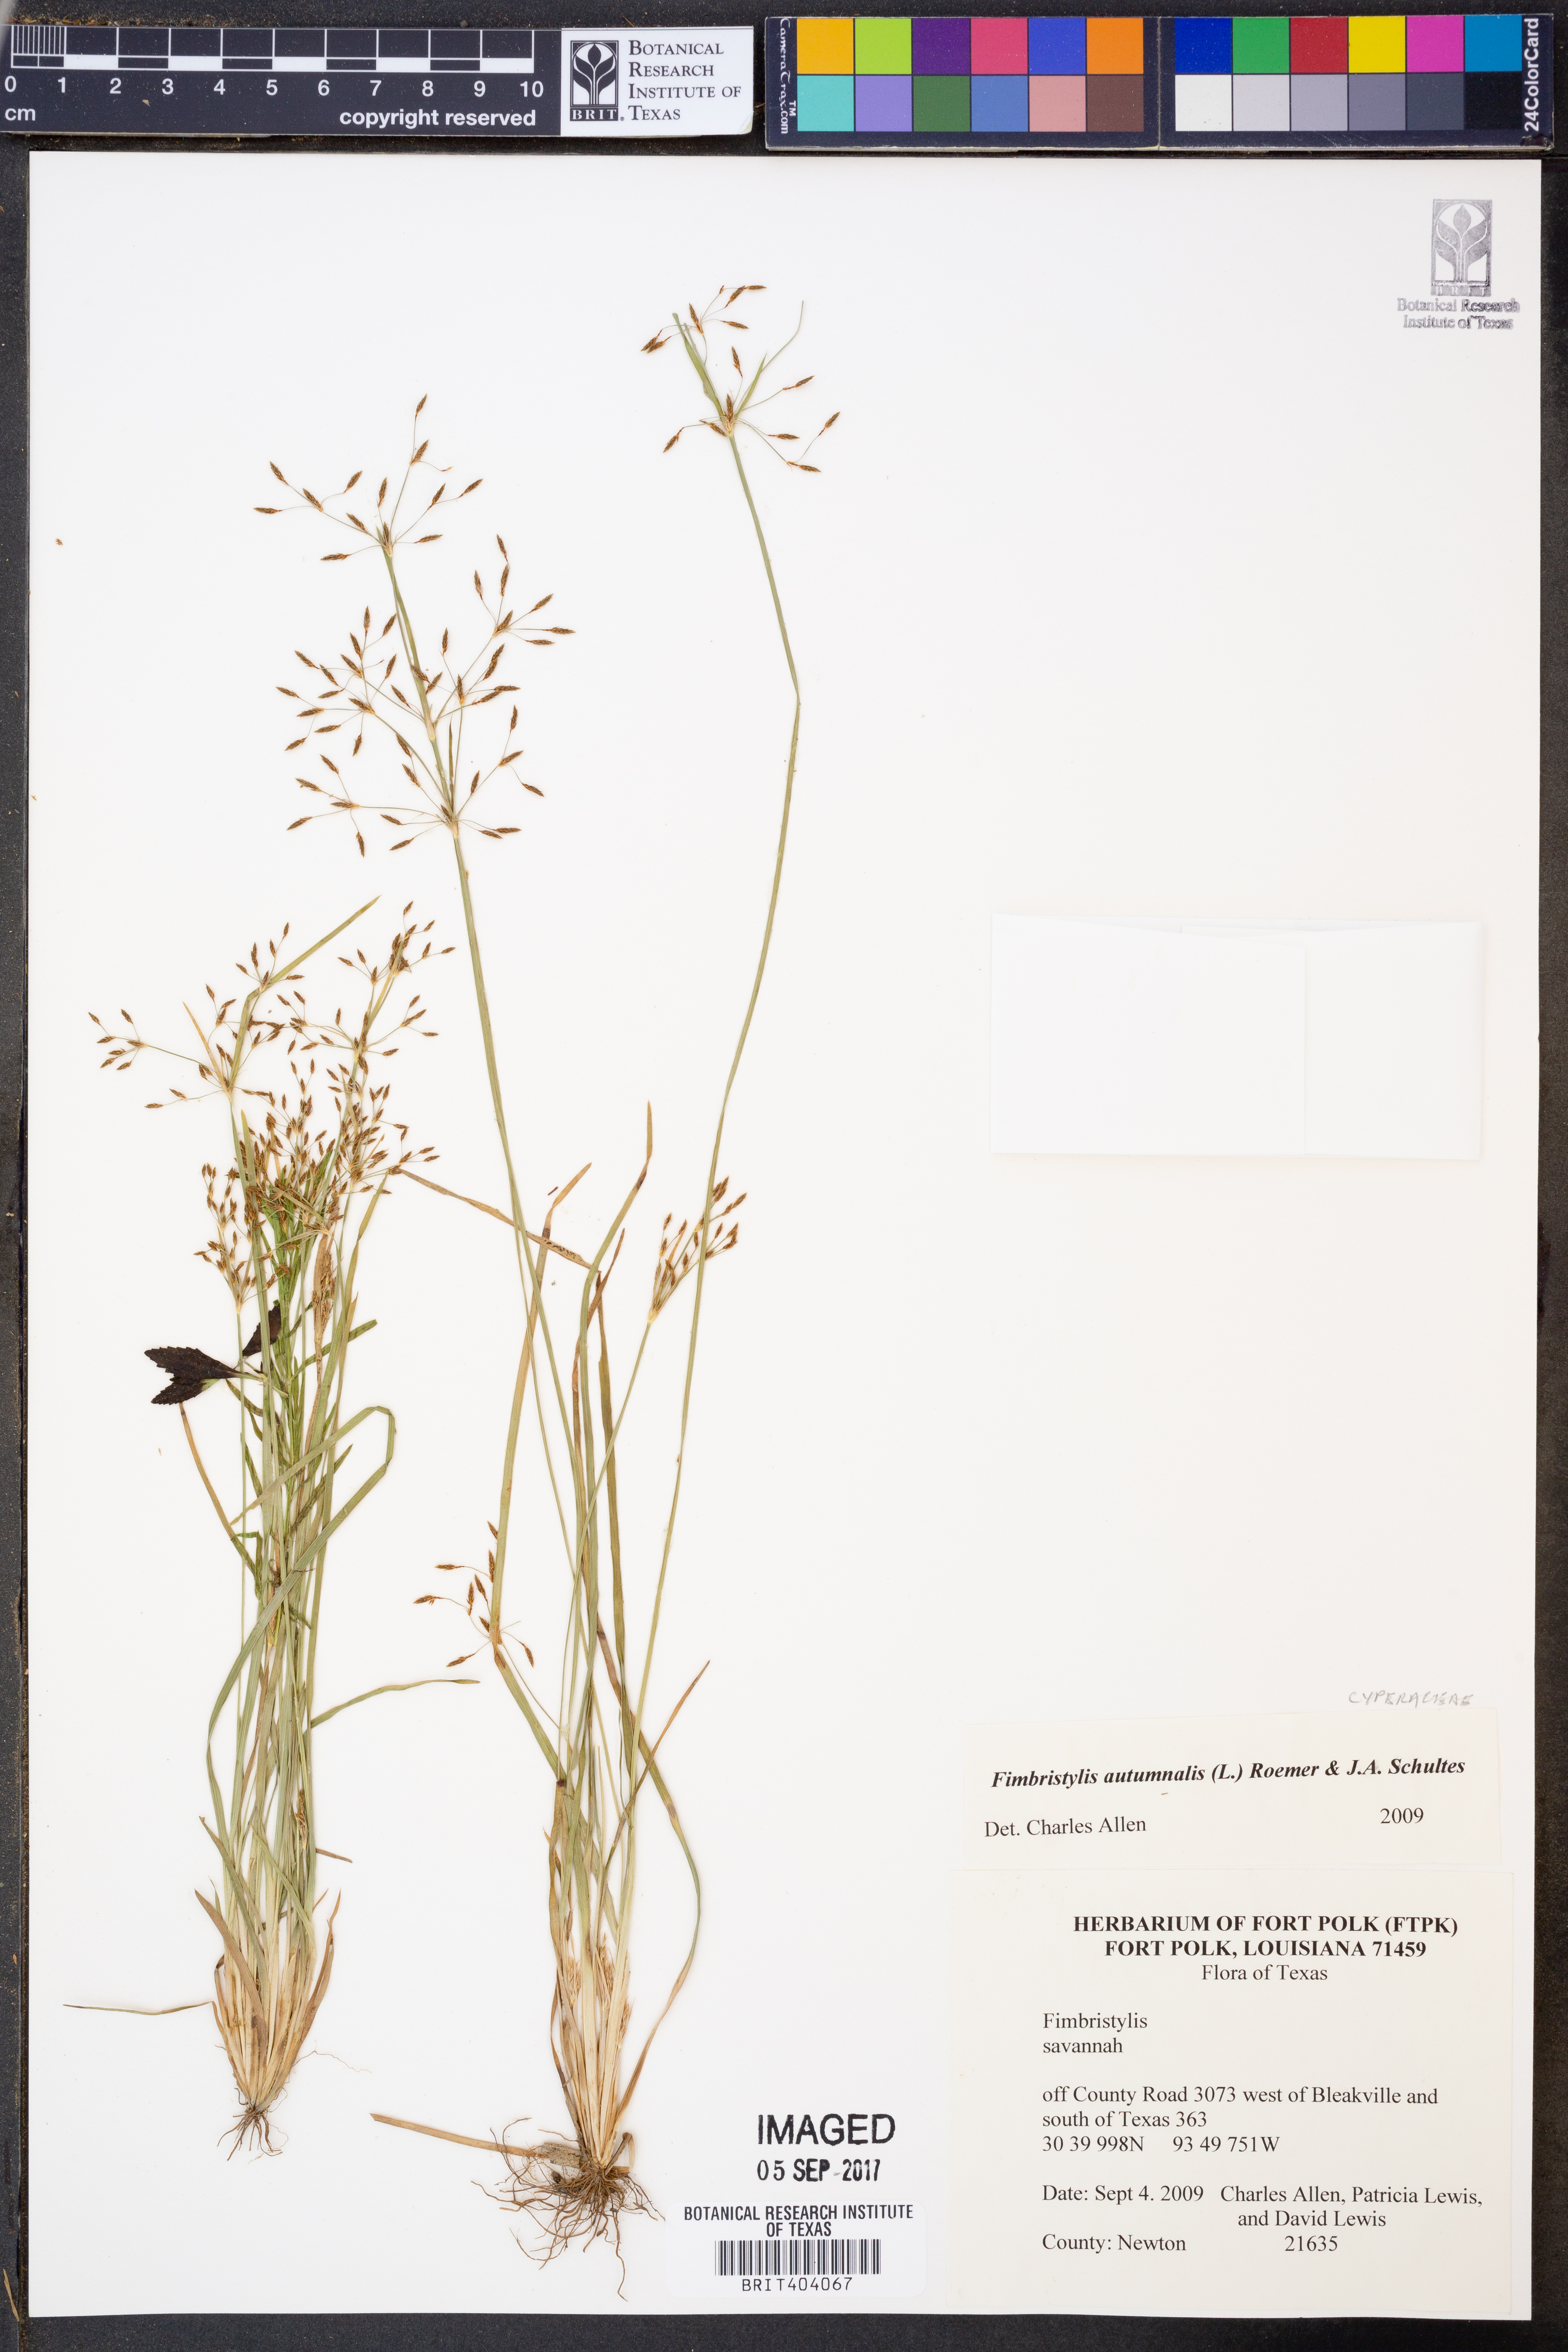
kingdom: Plantae
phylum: Tracheophyta
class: Liliopsida
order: Poales
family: Cyperaceae
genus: Fimbristylis
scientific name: Fimbristylis autumnalis
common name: Slender fimbristylis
